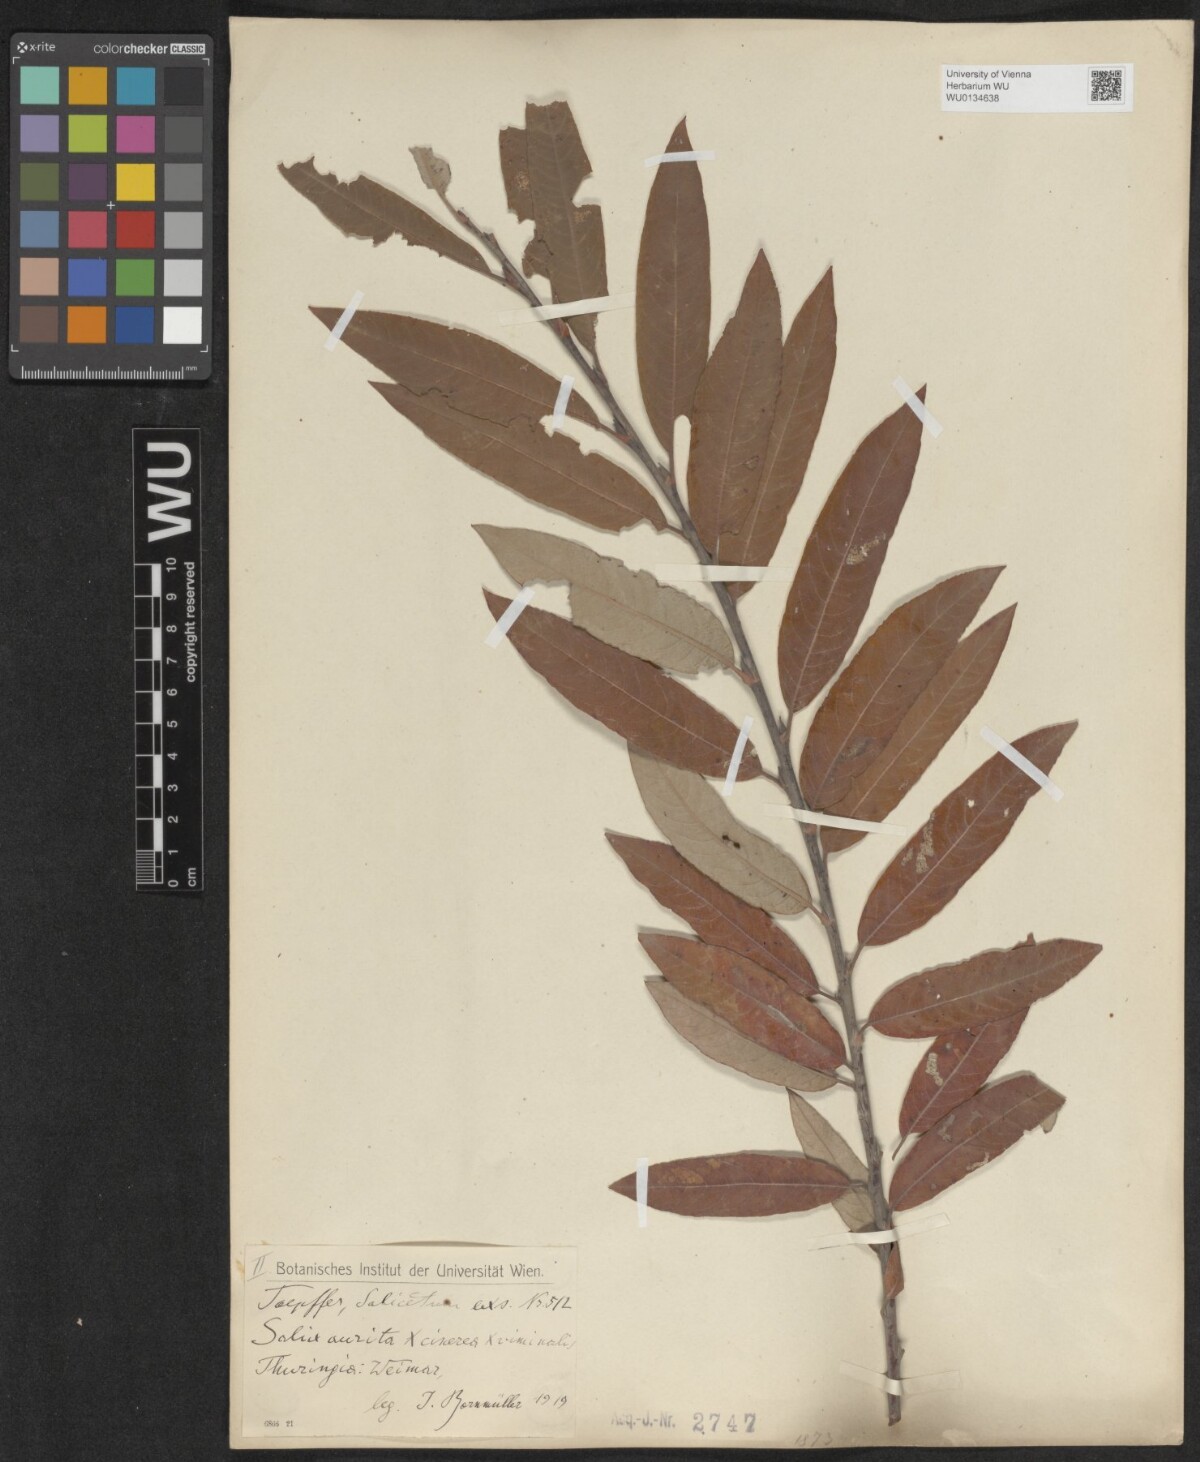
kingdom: Plantae
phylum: Tracheophyta
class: Magnoliopsida
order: Malpighiales
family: Salicaceae
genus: Salix
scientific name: Salix
